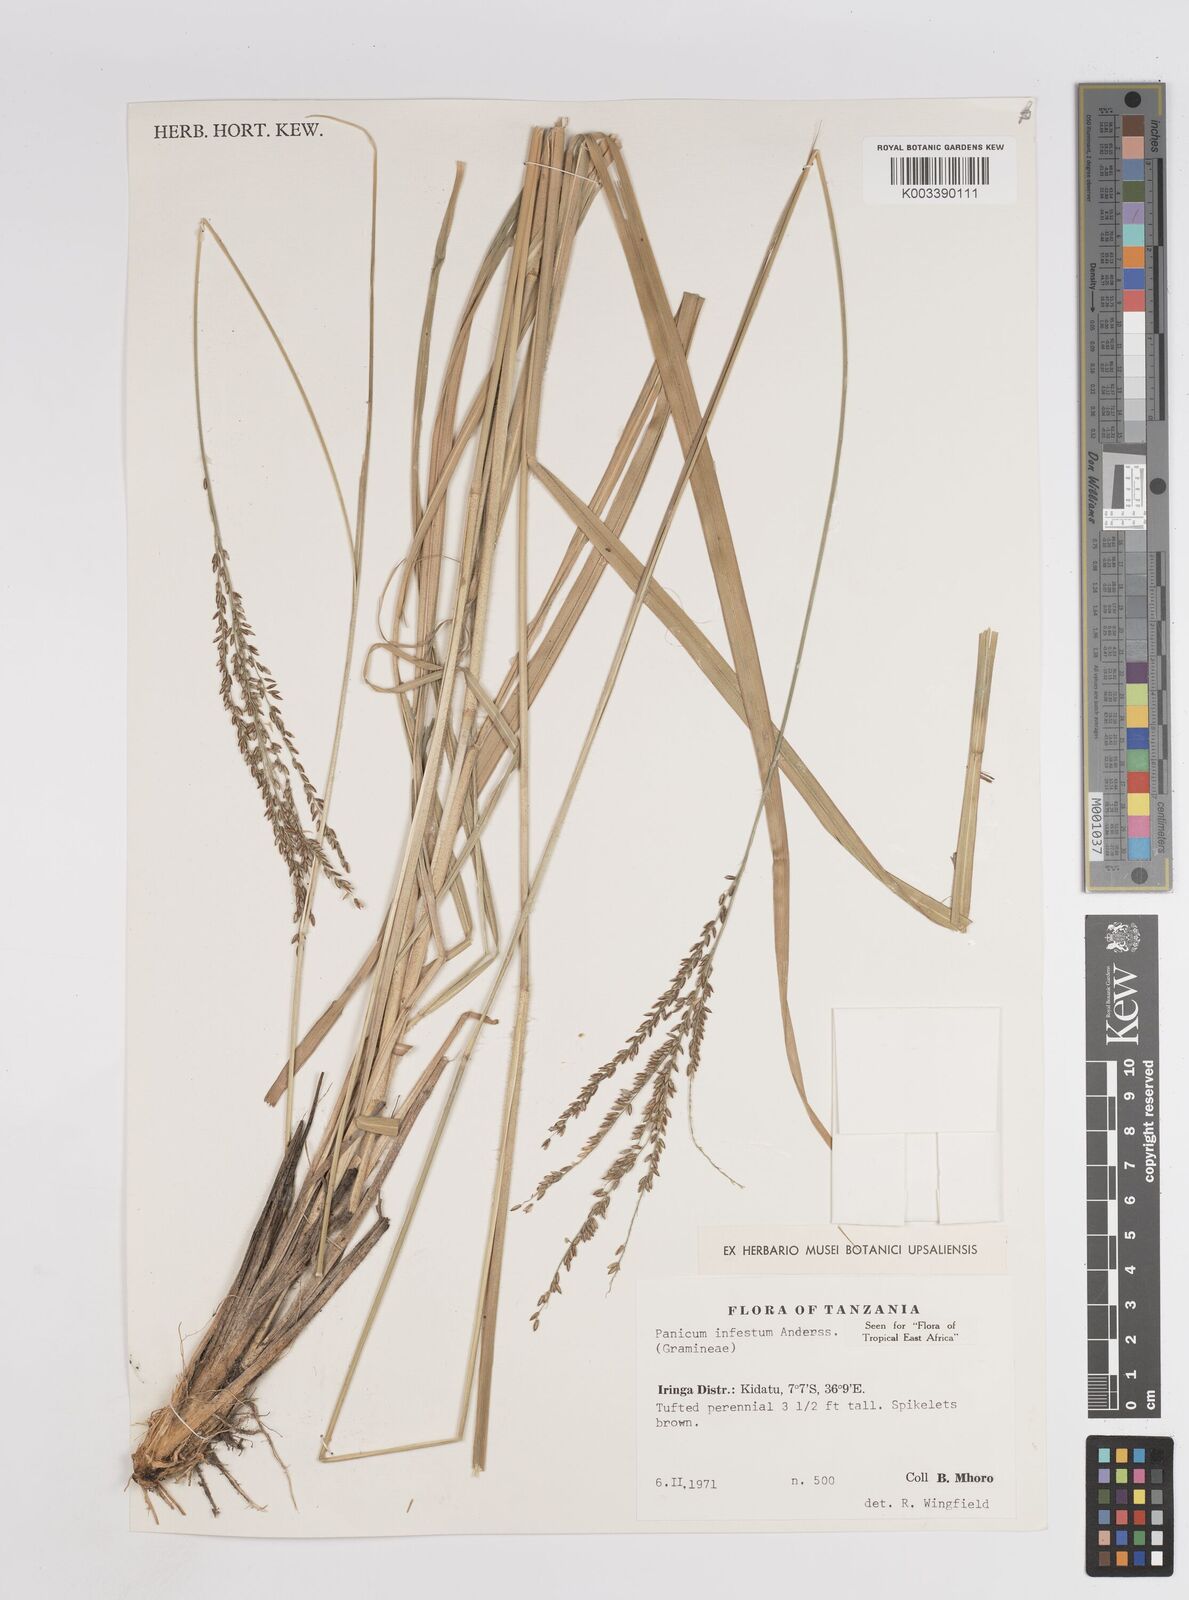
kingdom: Plantae
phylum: Tracheophyta
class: Liliopsida
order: Poales
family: Poaceae
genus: Megathyrsus
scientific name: Megathyrsus infestus
